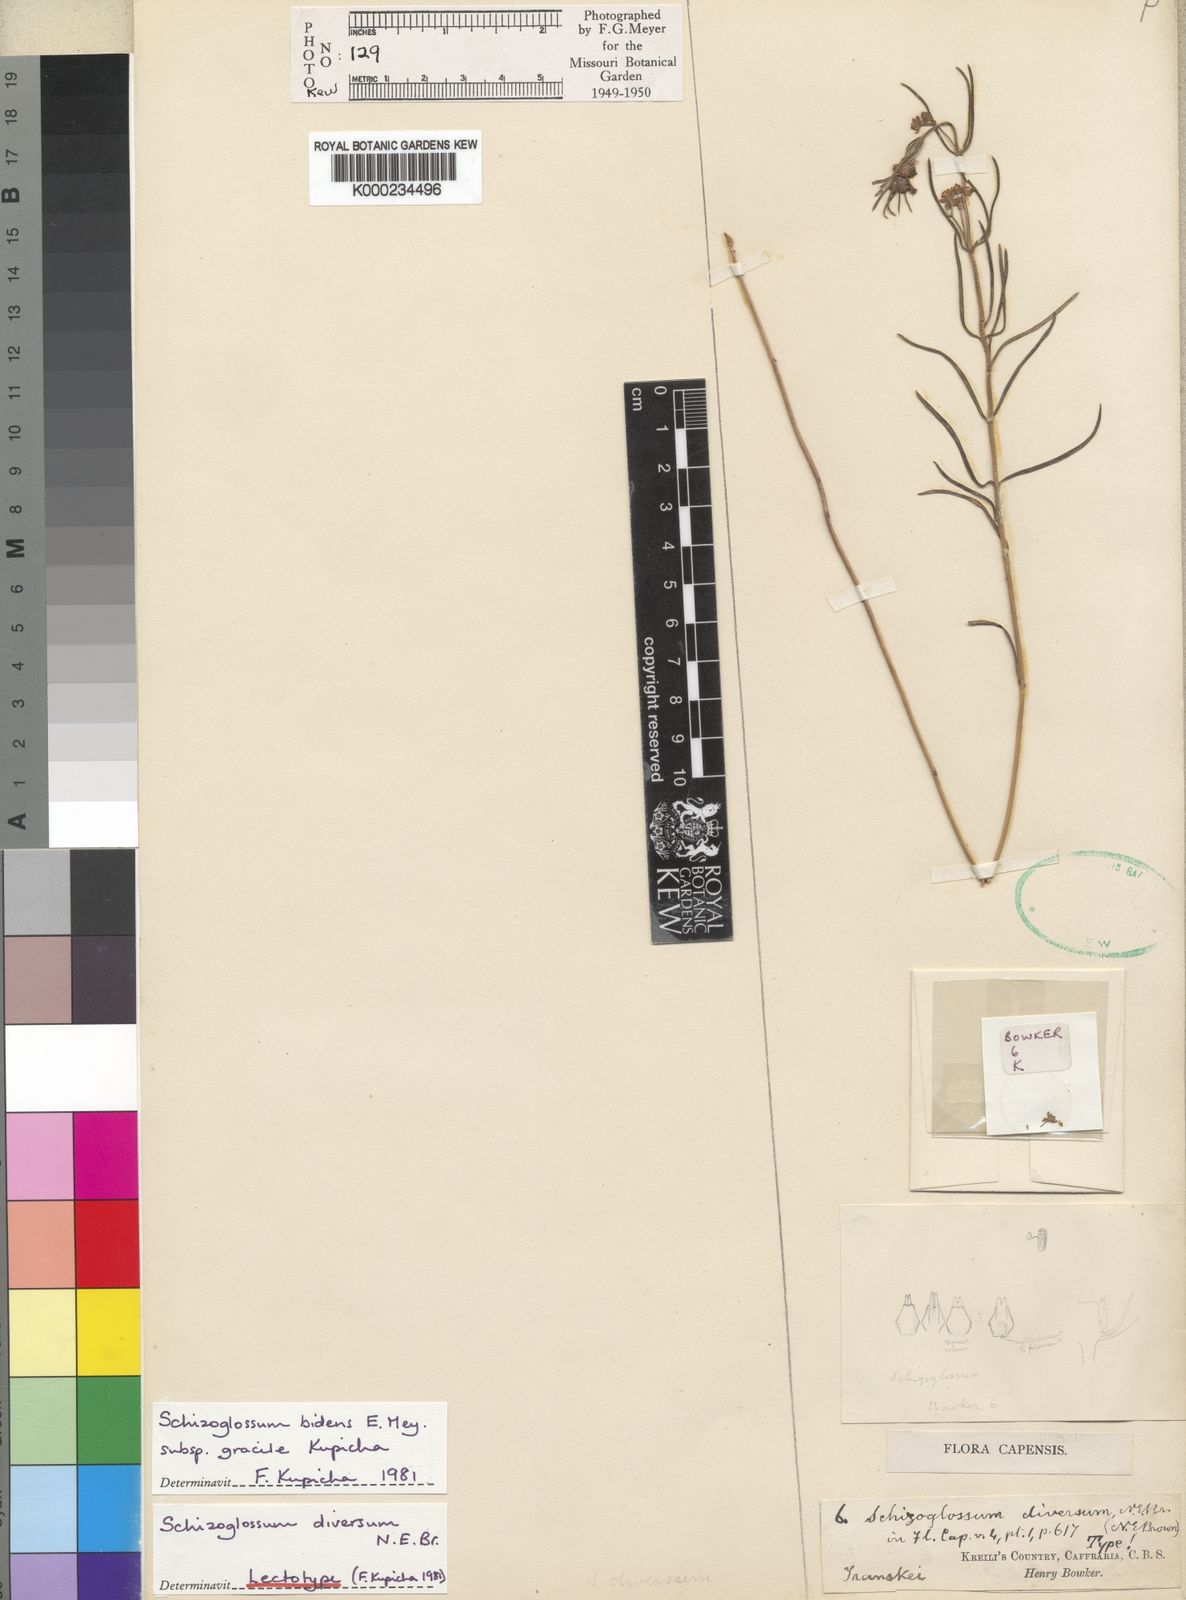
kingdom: Plantae
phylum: Tracheophyta
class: Magnoliopsida
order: Gentianales
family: Apocynaceae
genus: Schizoglossum
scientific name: Schizoglossum bidens
